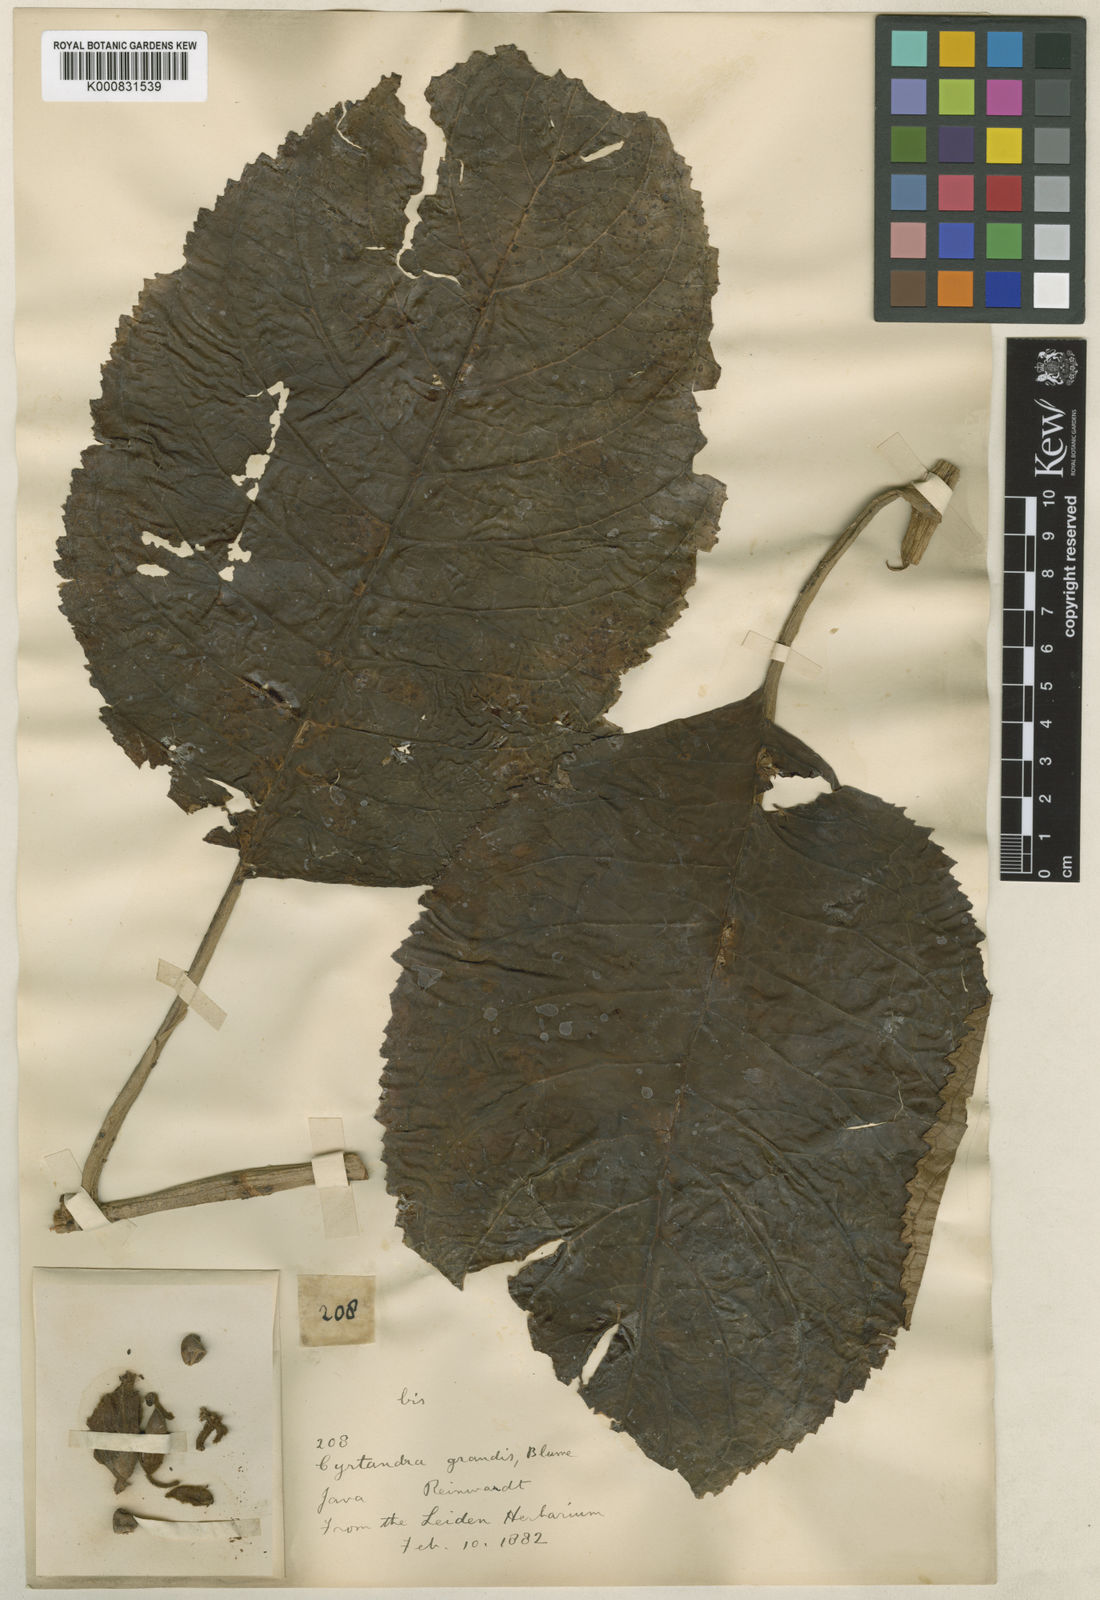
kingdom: Plantae
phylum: Tracheophyta
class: Magnoliopsida
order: Lamiales
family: Gesneriaceae
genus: Cyrtandra
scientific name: Cyrtandra grandis
